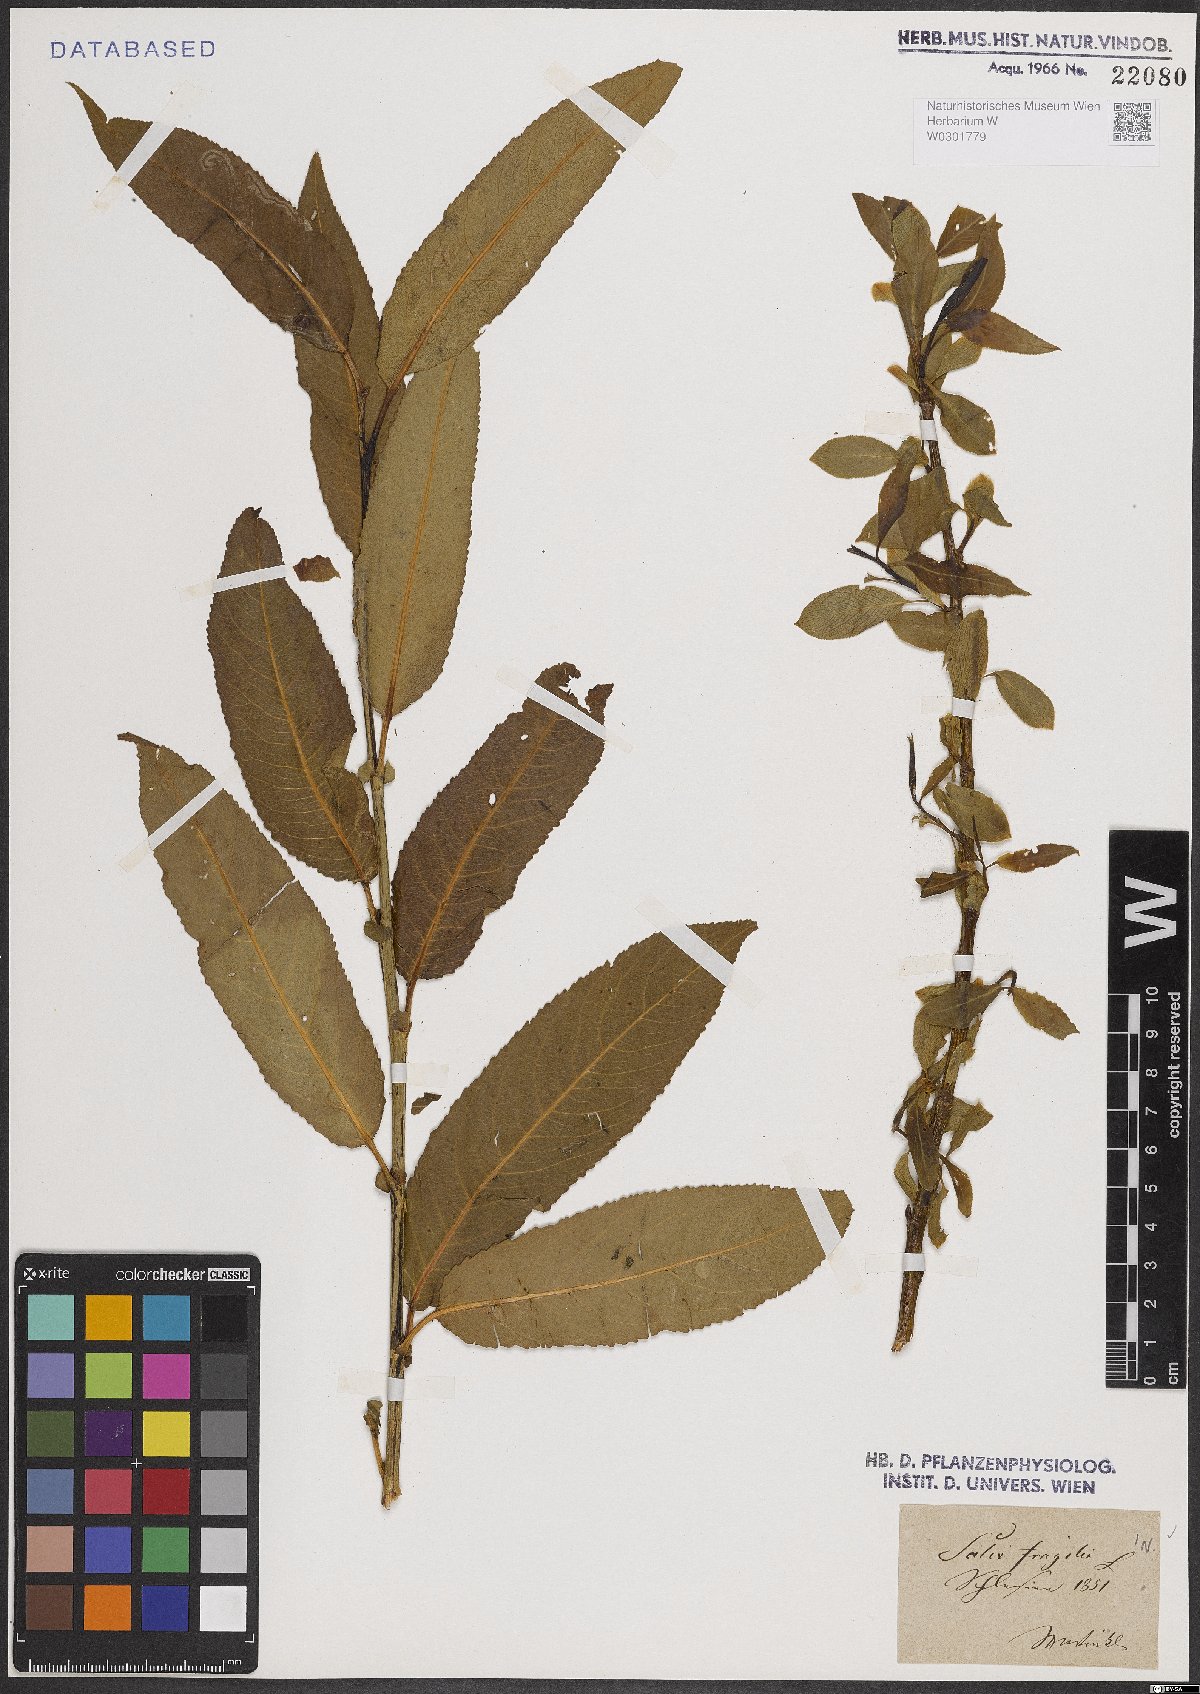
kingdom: Plantae
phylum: Tracheophyta
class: Magnoliopsida
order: Malpighiales
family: Salicaceae
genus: Salix
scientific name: Salix fragilis
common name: Crack willow
